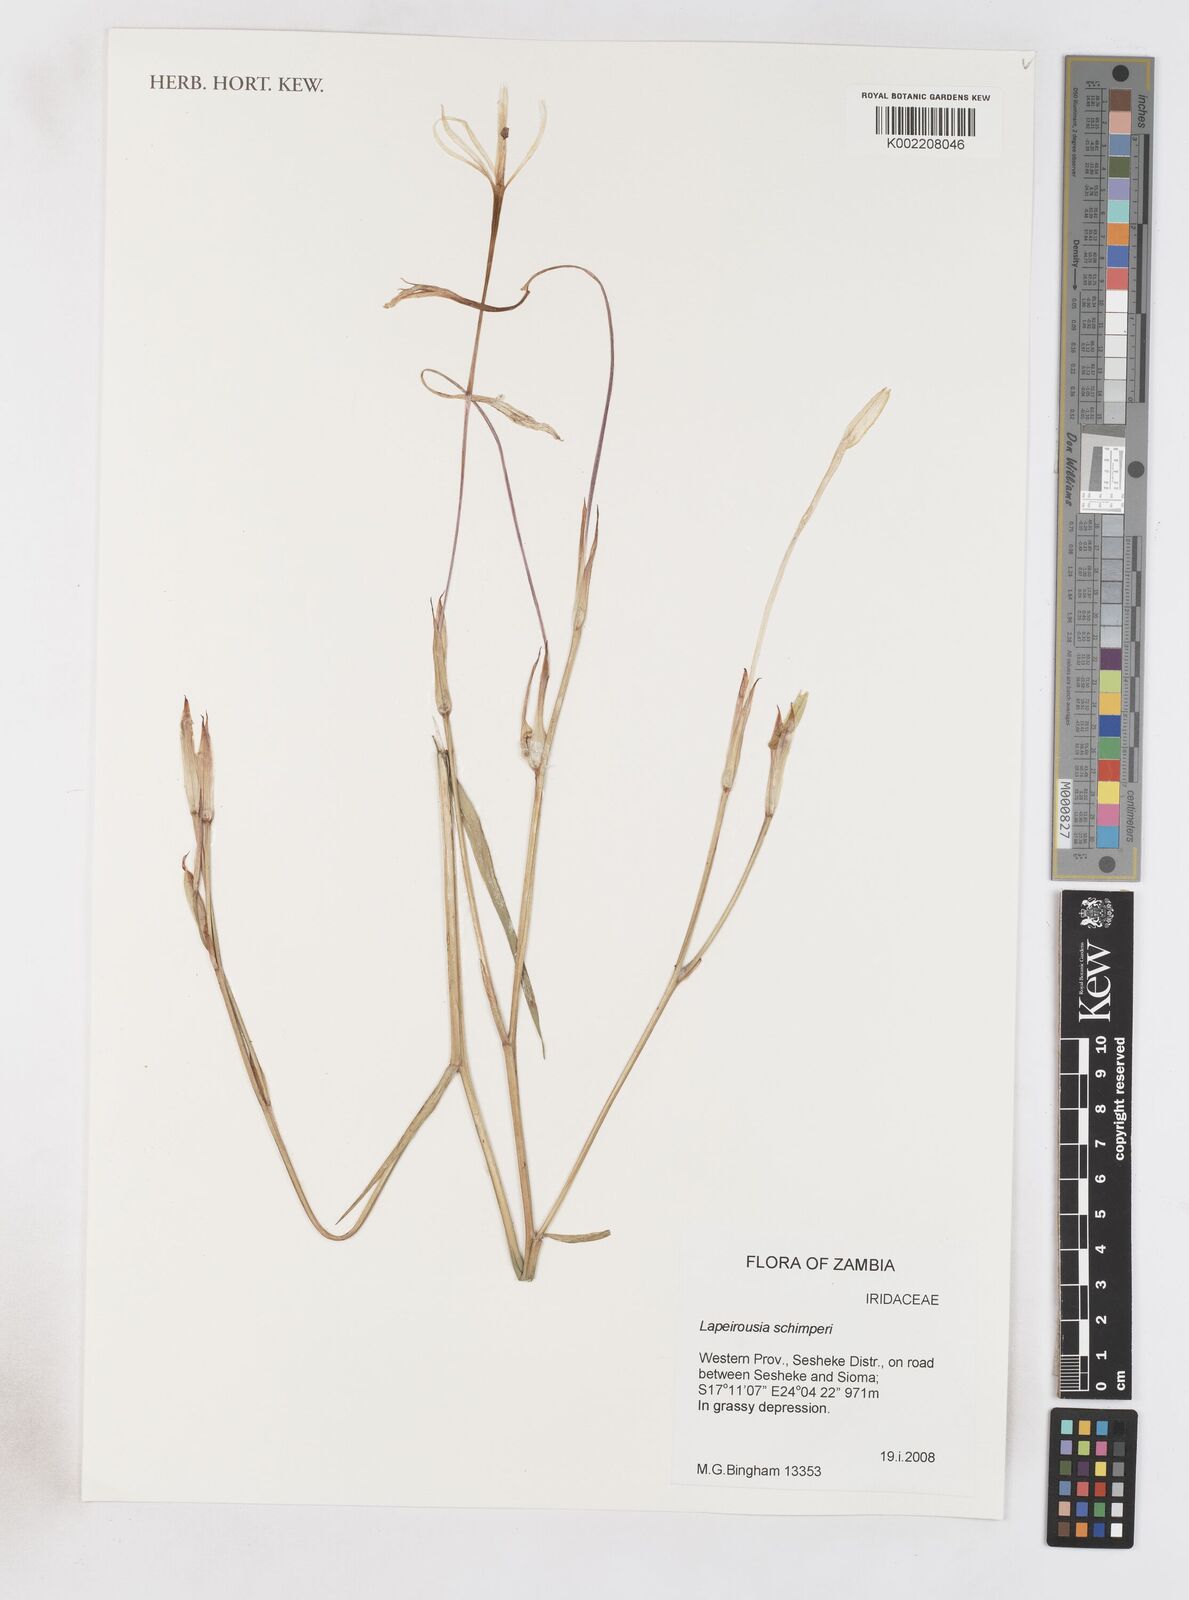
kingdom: Plantae
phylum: Tracheophyta
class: Liliopsida
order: Asparagales
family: Iridaceae
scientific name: Iridaceae
